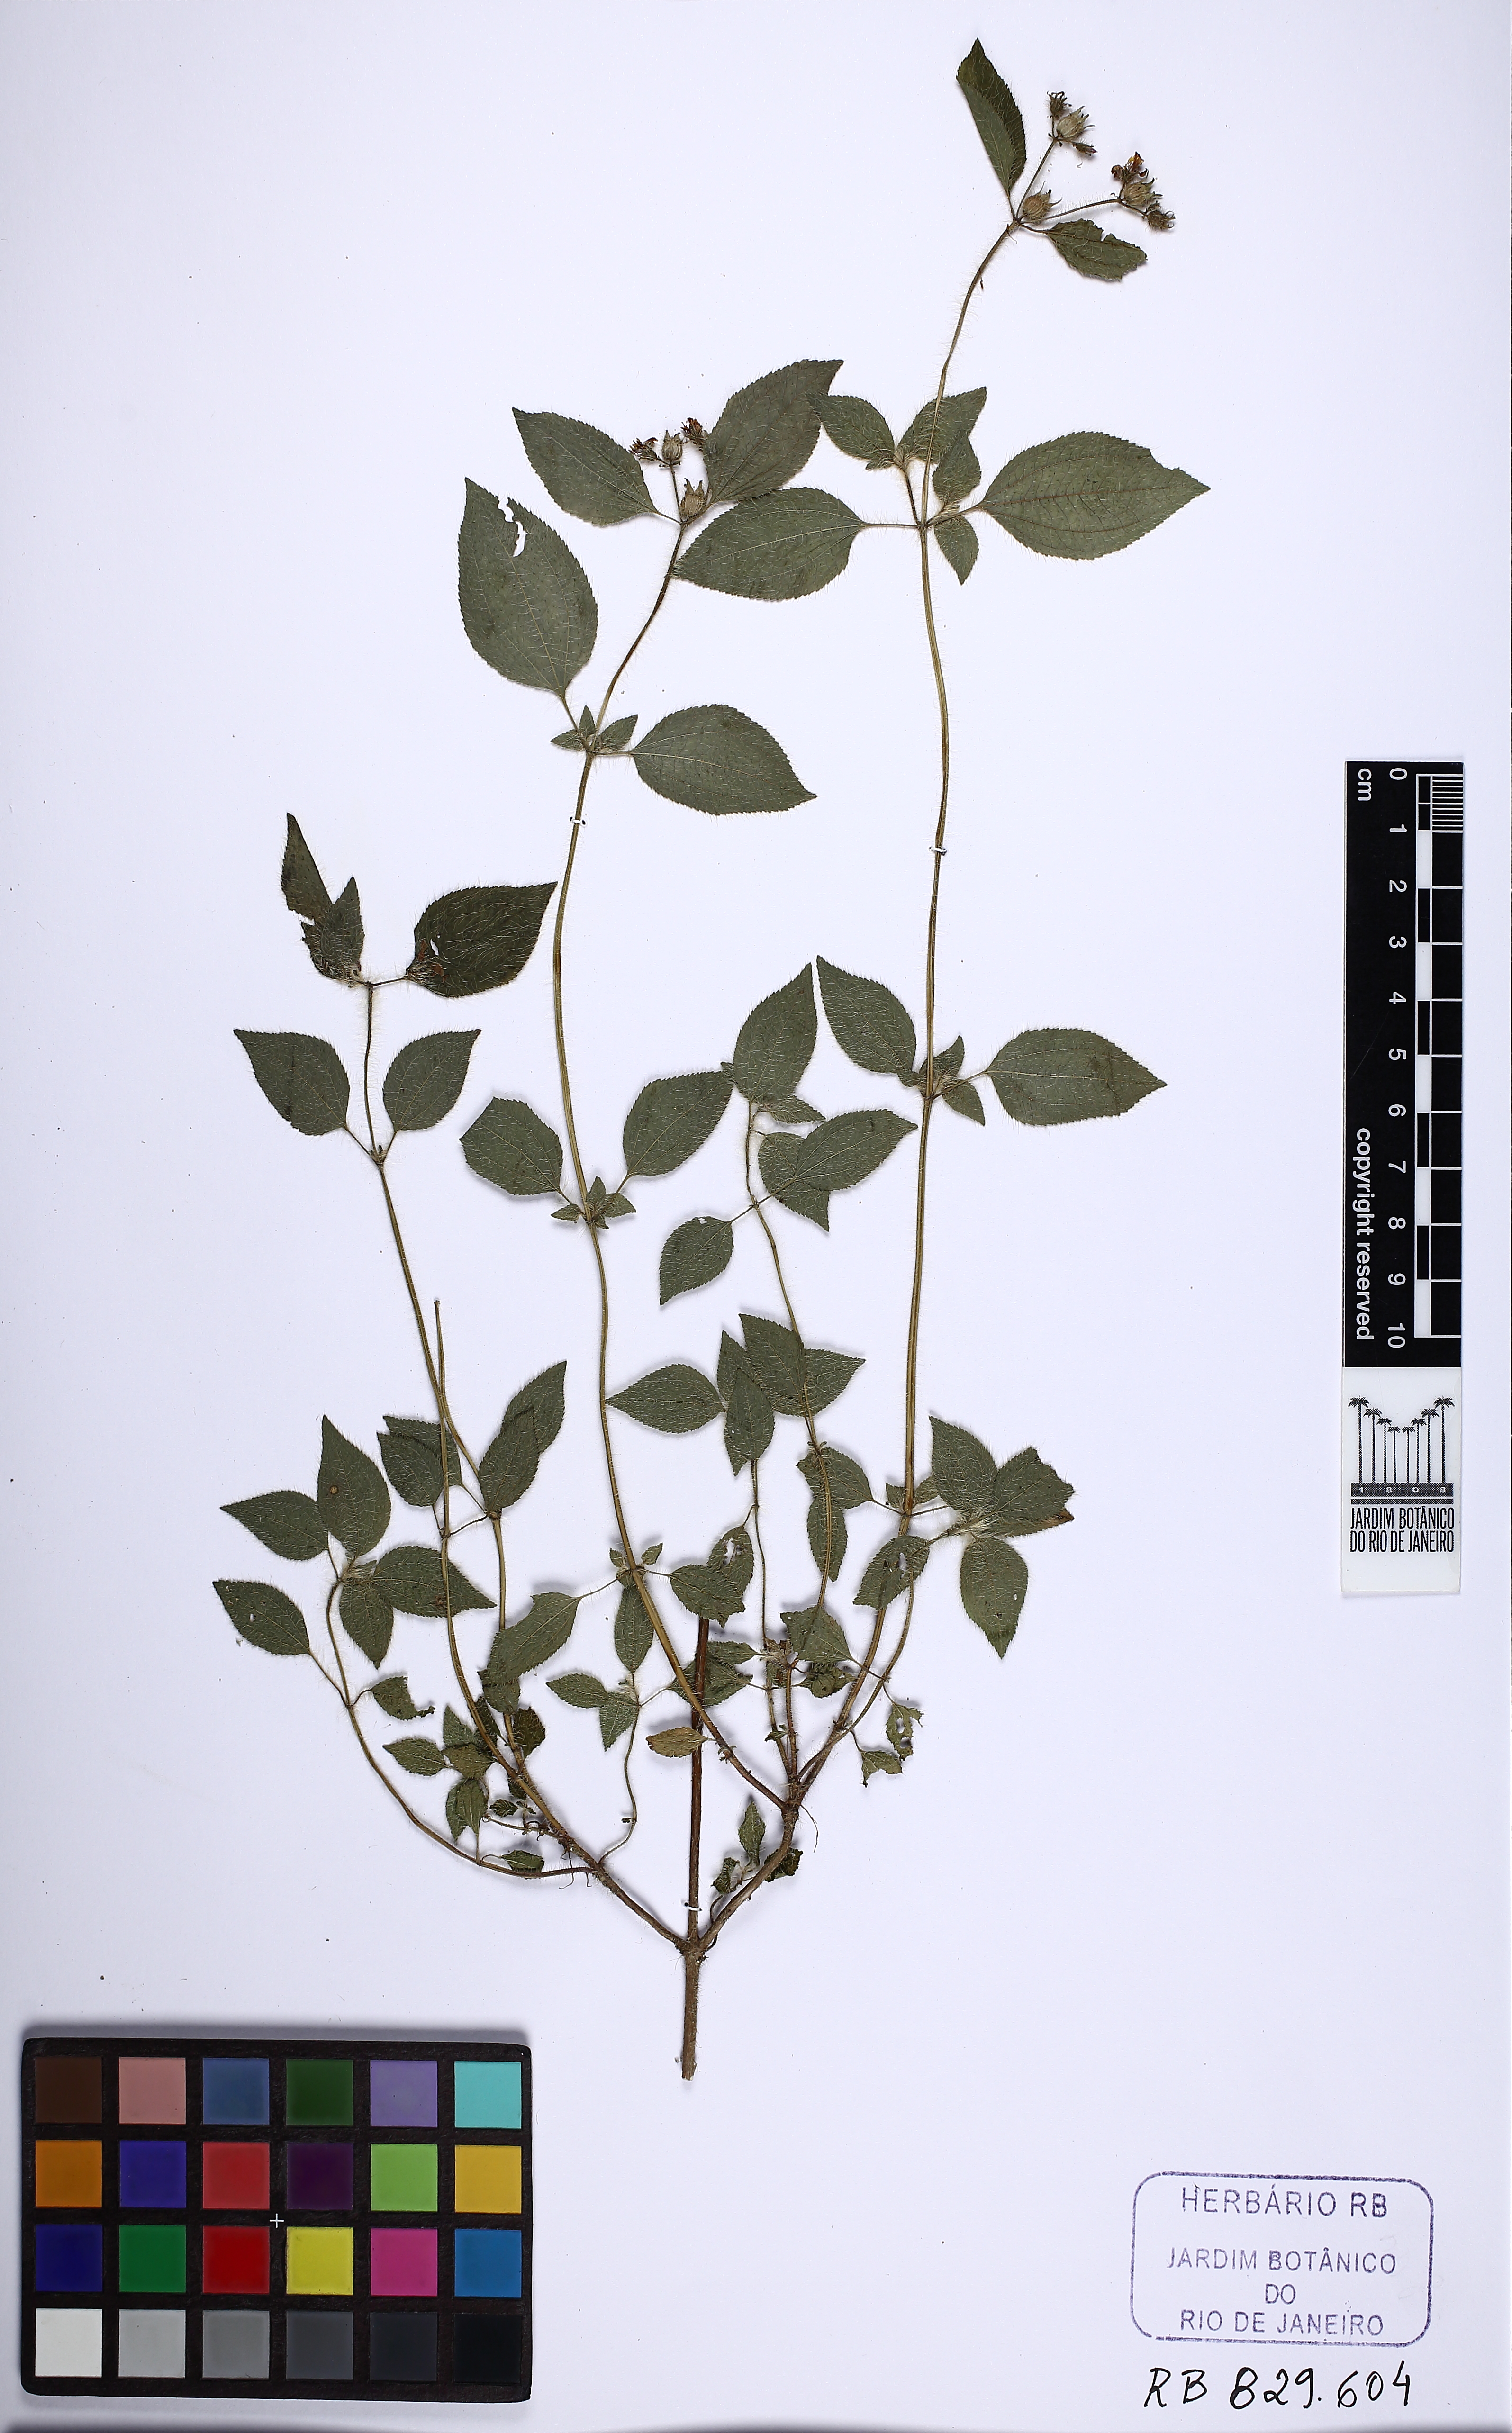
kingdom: Plantae
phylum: Tracheophyta
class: Magnoliopsida
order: Myrtales
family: Melastomataceae
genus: Chaetogastra
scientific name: Chaetogastra clinopodifolia
